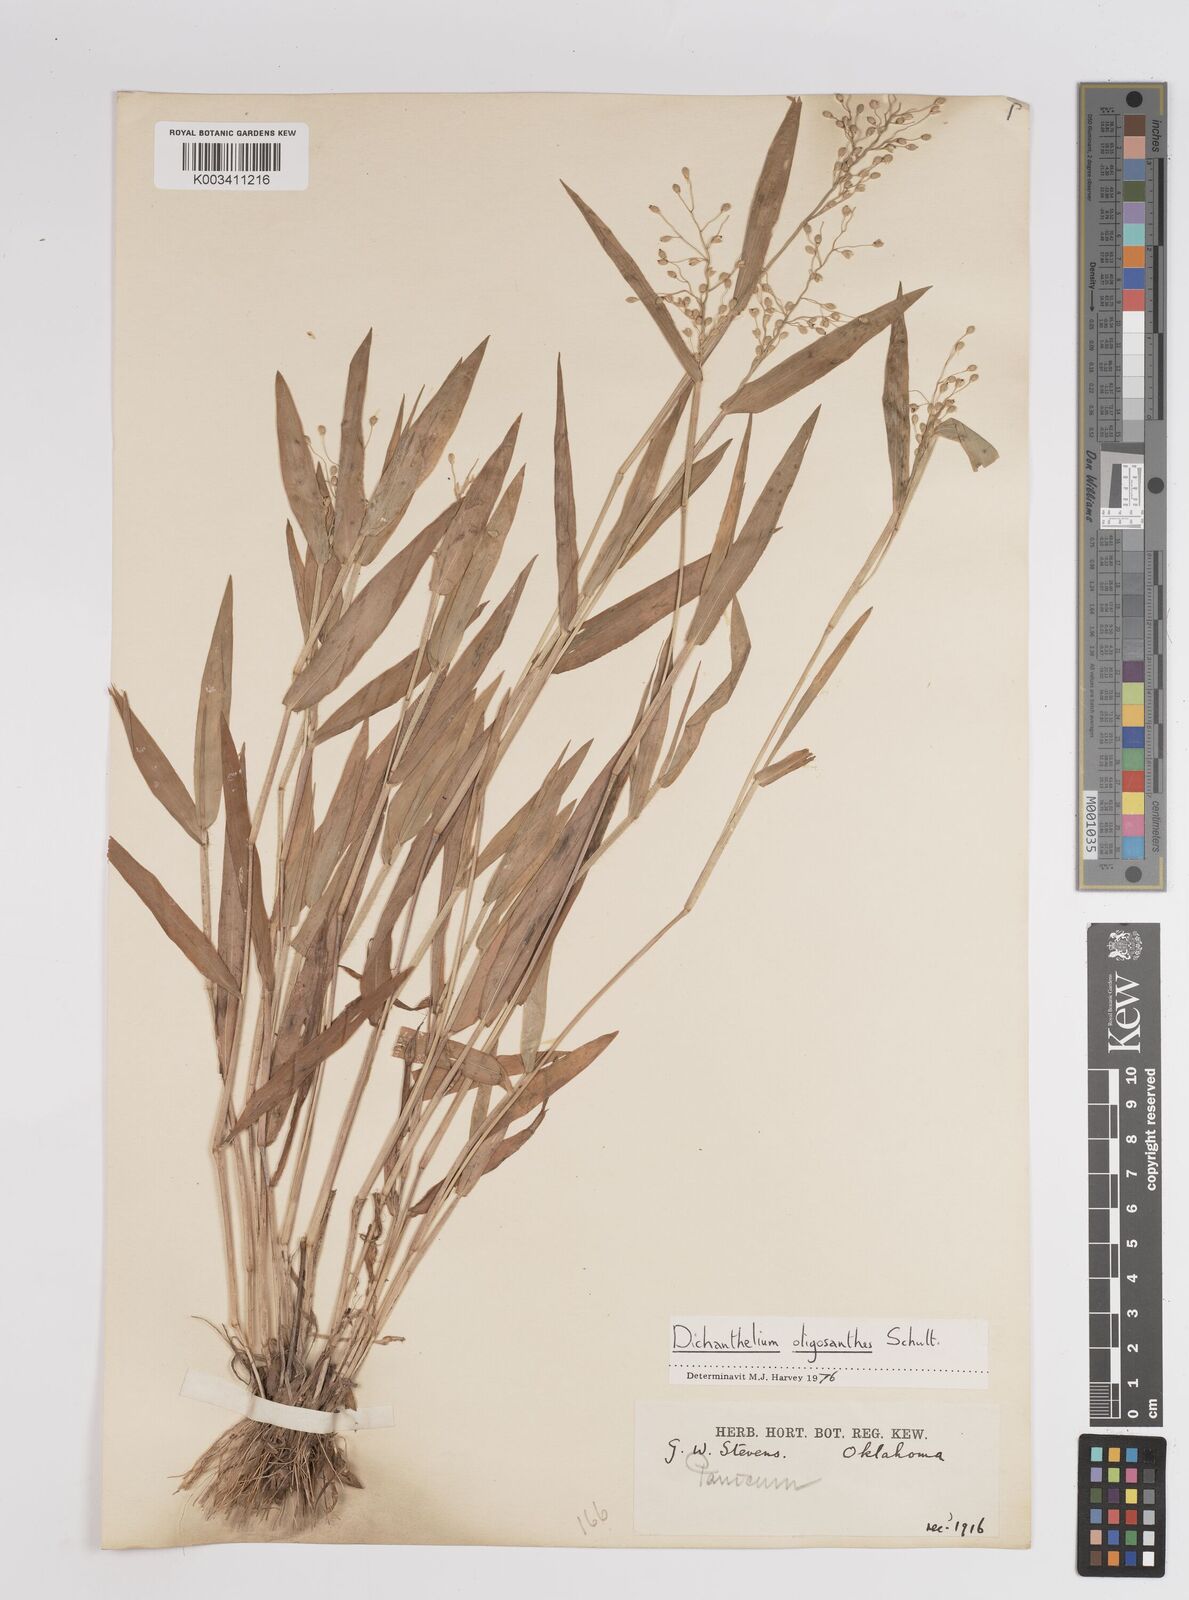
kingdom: Plantae
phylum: Tracheophyta
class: Liliopsida
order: Poales
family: Poaceae
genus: Dichanthelium
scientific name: Dichanthelium oligosanthes
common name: Few-anther obscuregrass
